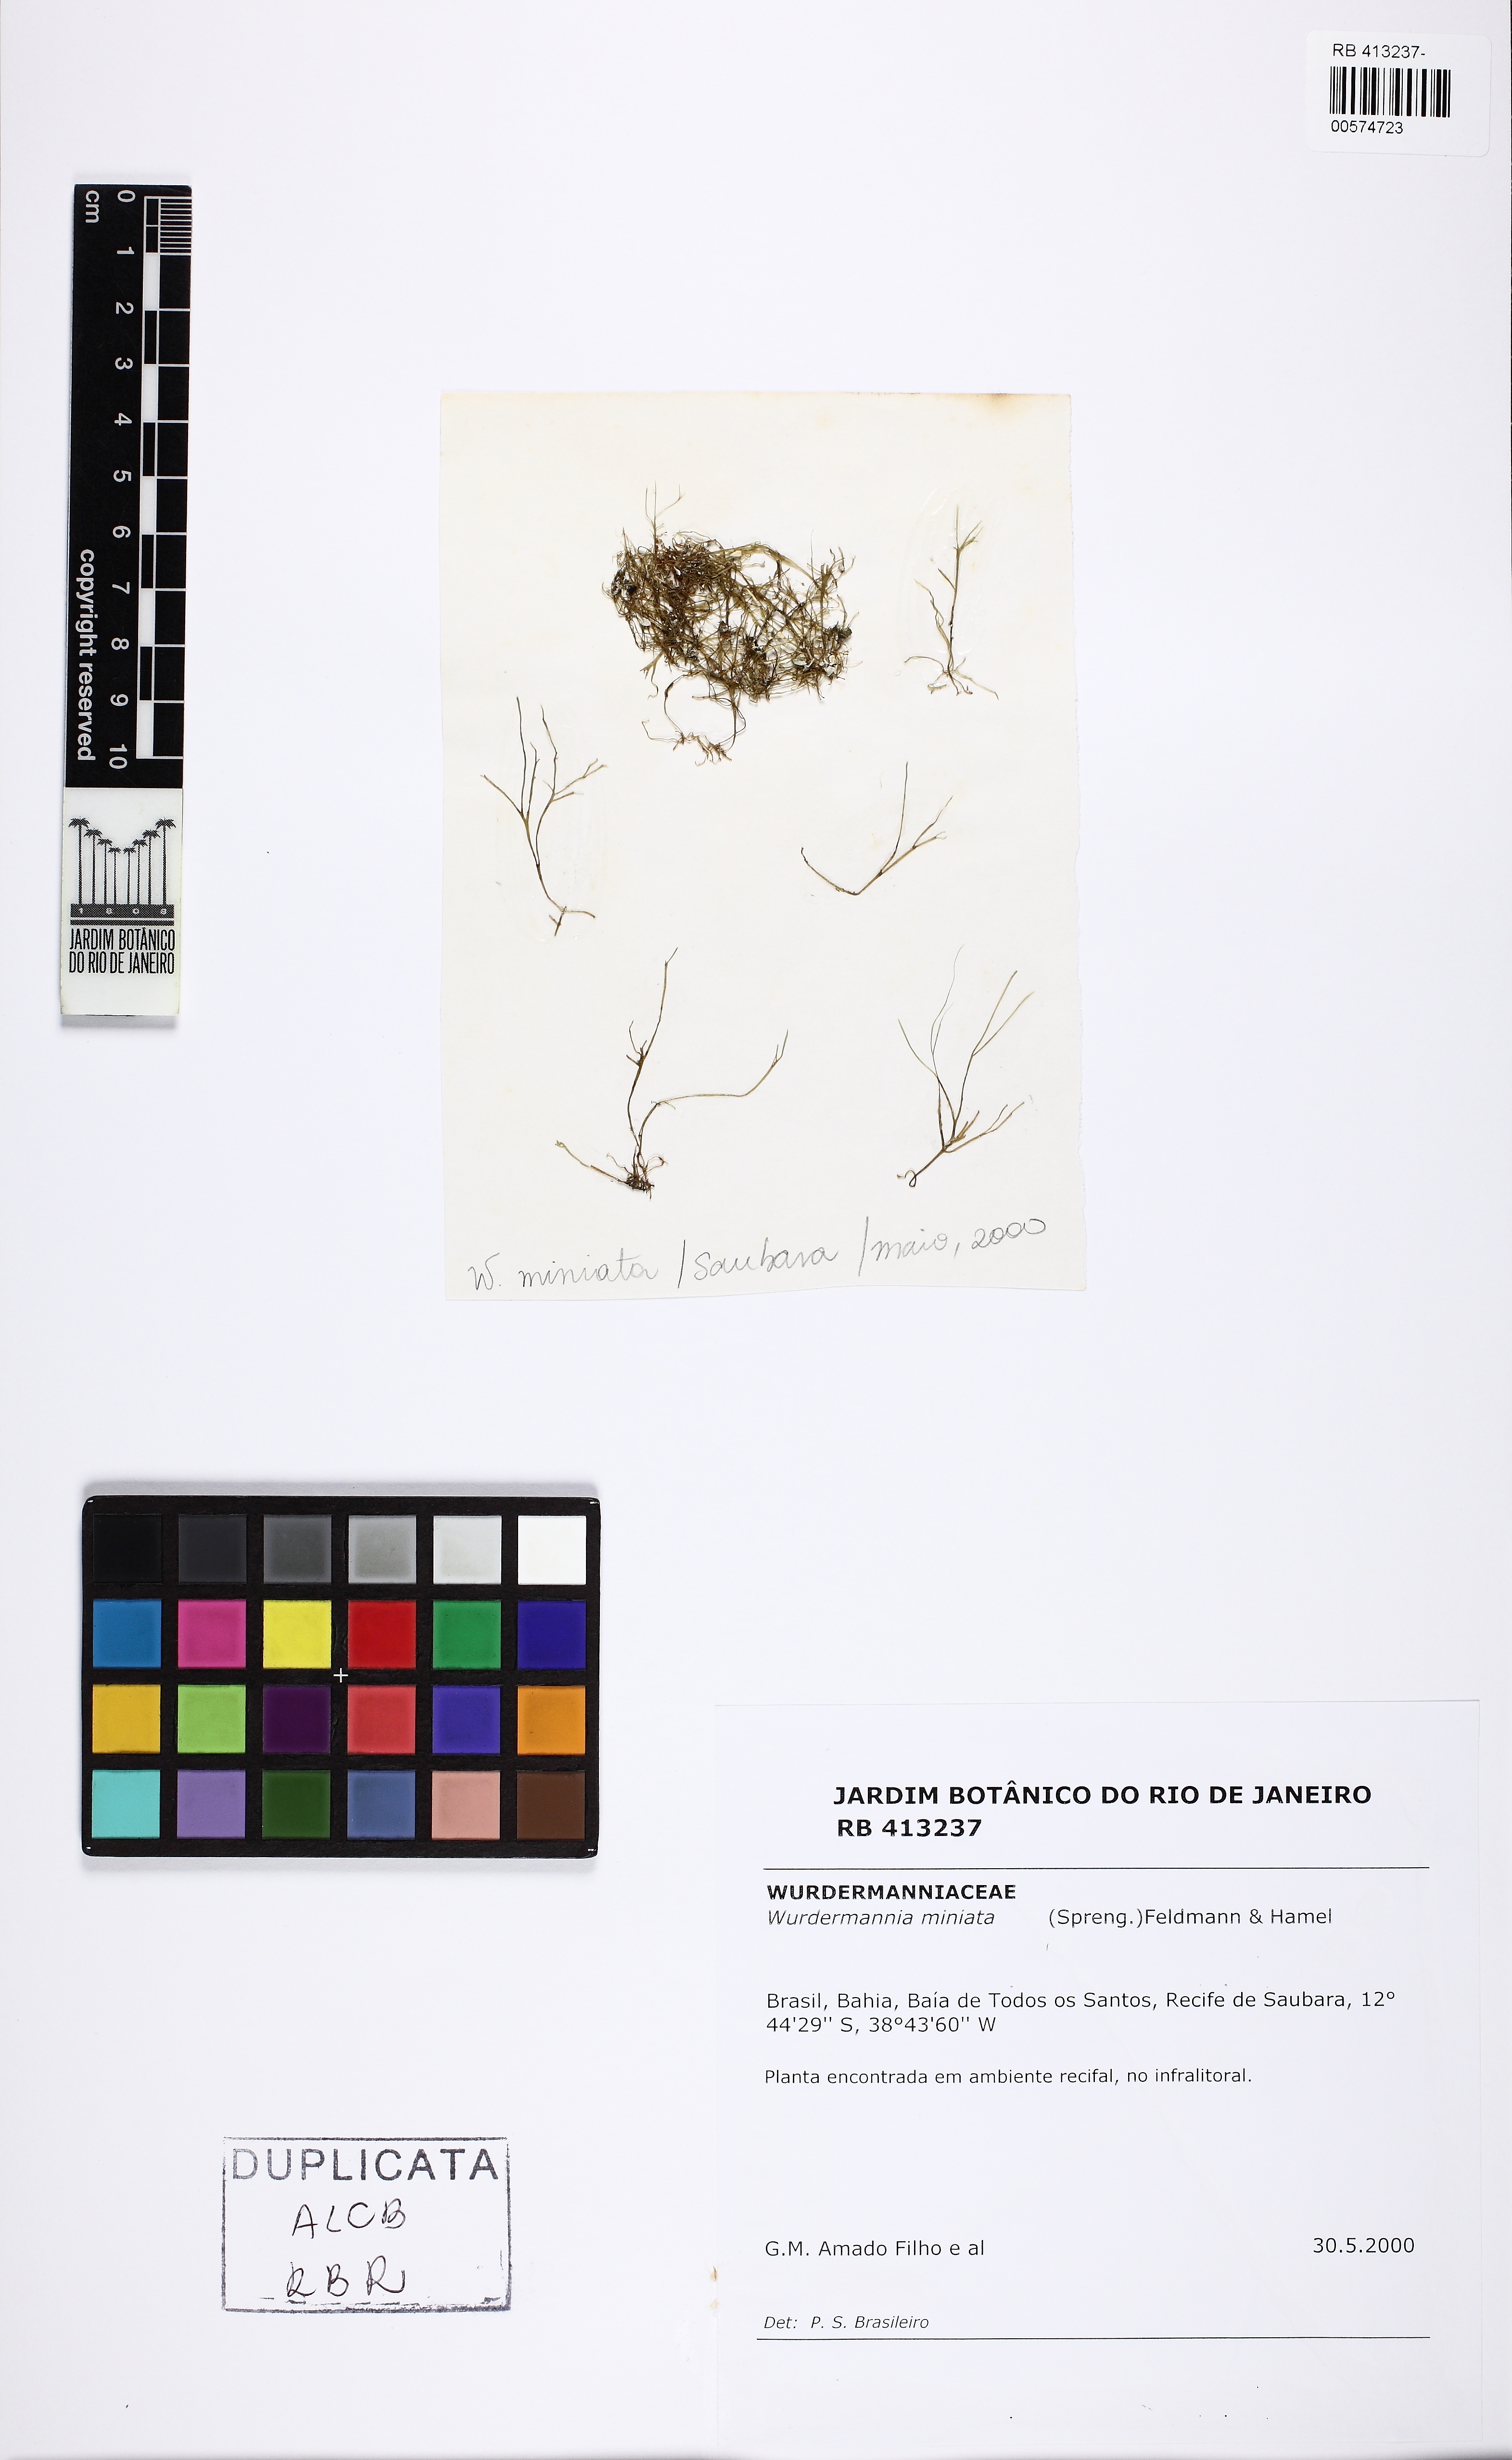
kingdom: Plantae
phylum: Rhodophyta
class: Florideophyceae
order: Gigartinales
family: Solieriaceae
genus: Wurdemannia
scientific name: Wurdemannia miniata
